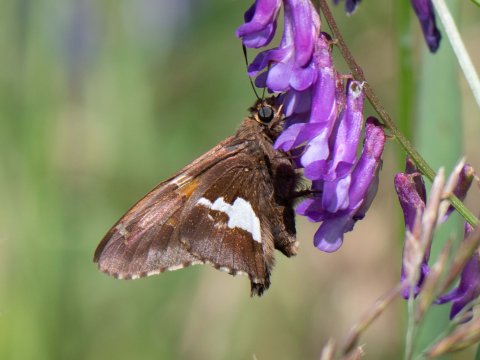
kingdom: Animalia
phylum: Arthropoda
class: Insecta
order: Lepidoptera
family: Hesperiidae
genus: Epargyreus
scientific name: Epargyreus clarus
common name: Silver-spotted Skipper
